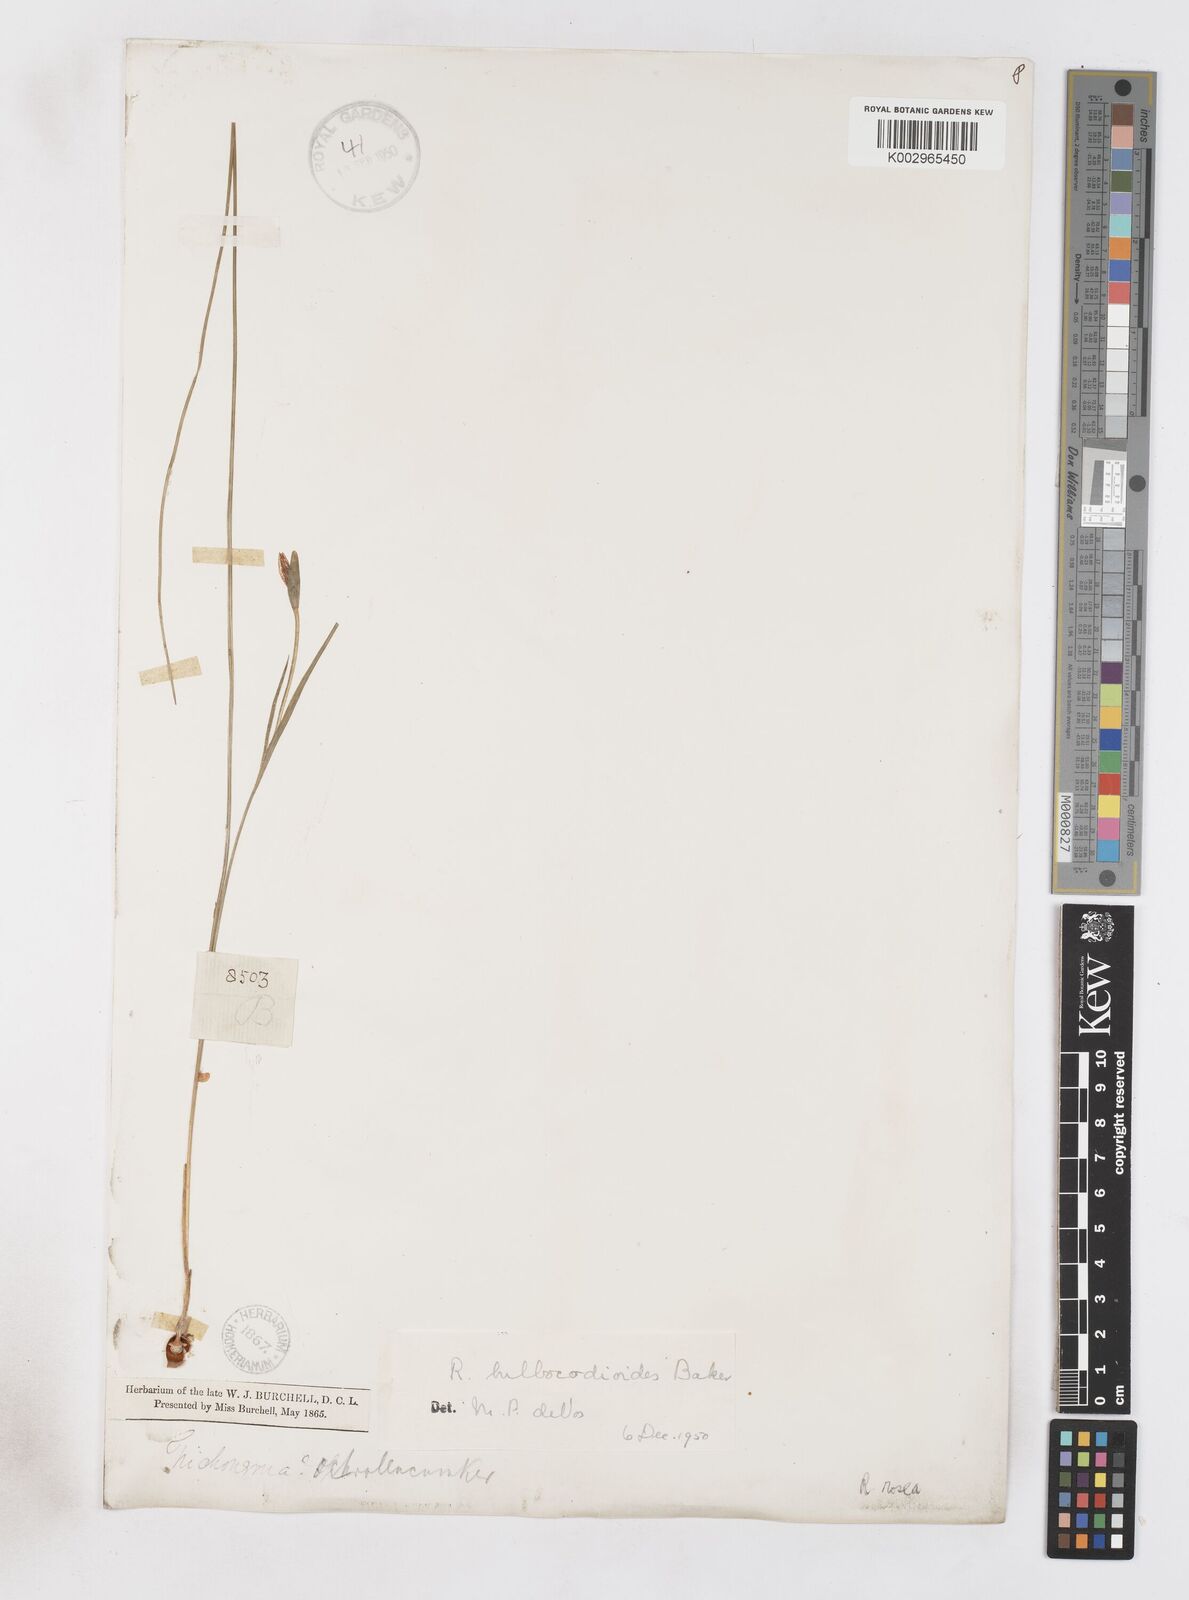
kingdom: Plantae
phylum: Tracheophyta
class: Liliopsida
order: Asparagales
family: Iridaceae
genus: Romulea
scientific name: Romulea flava
